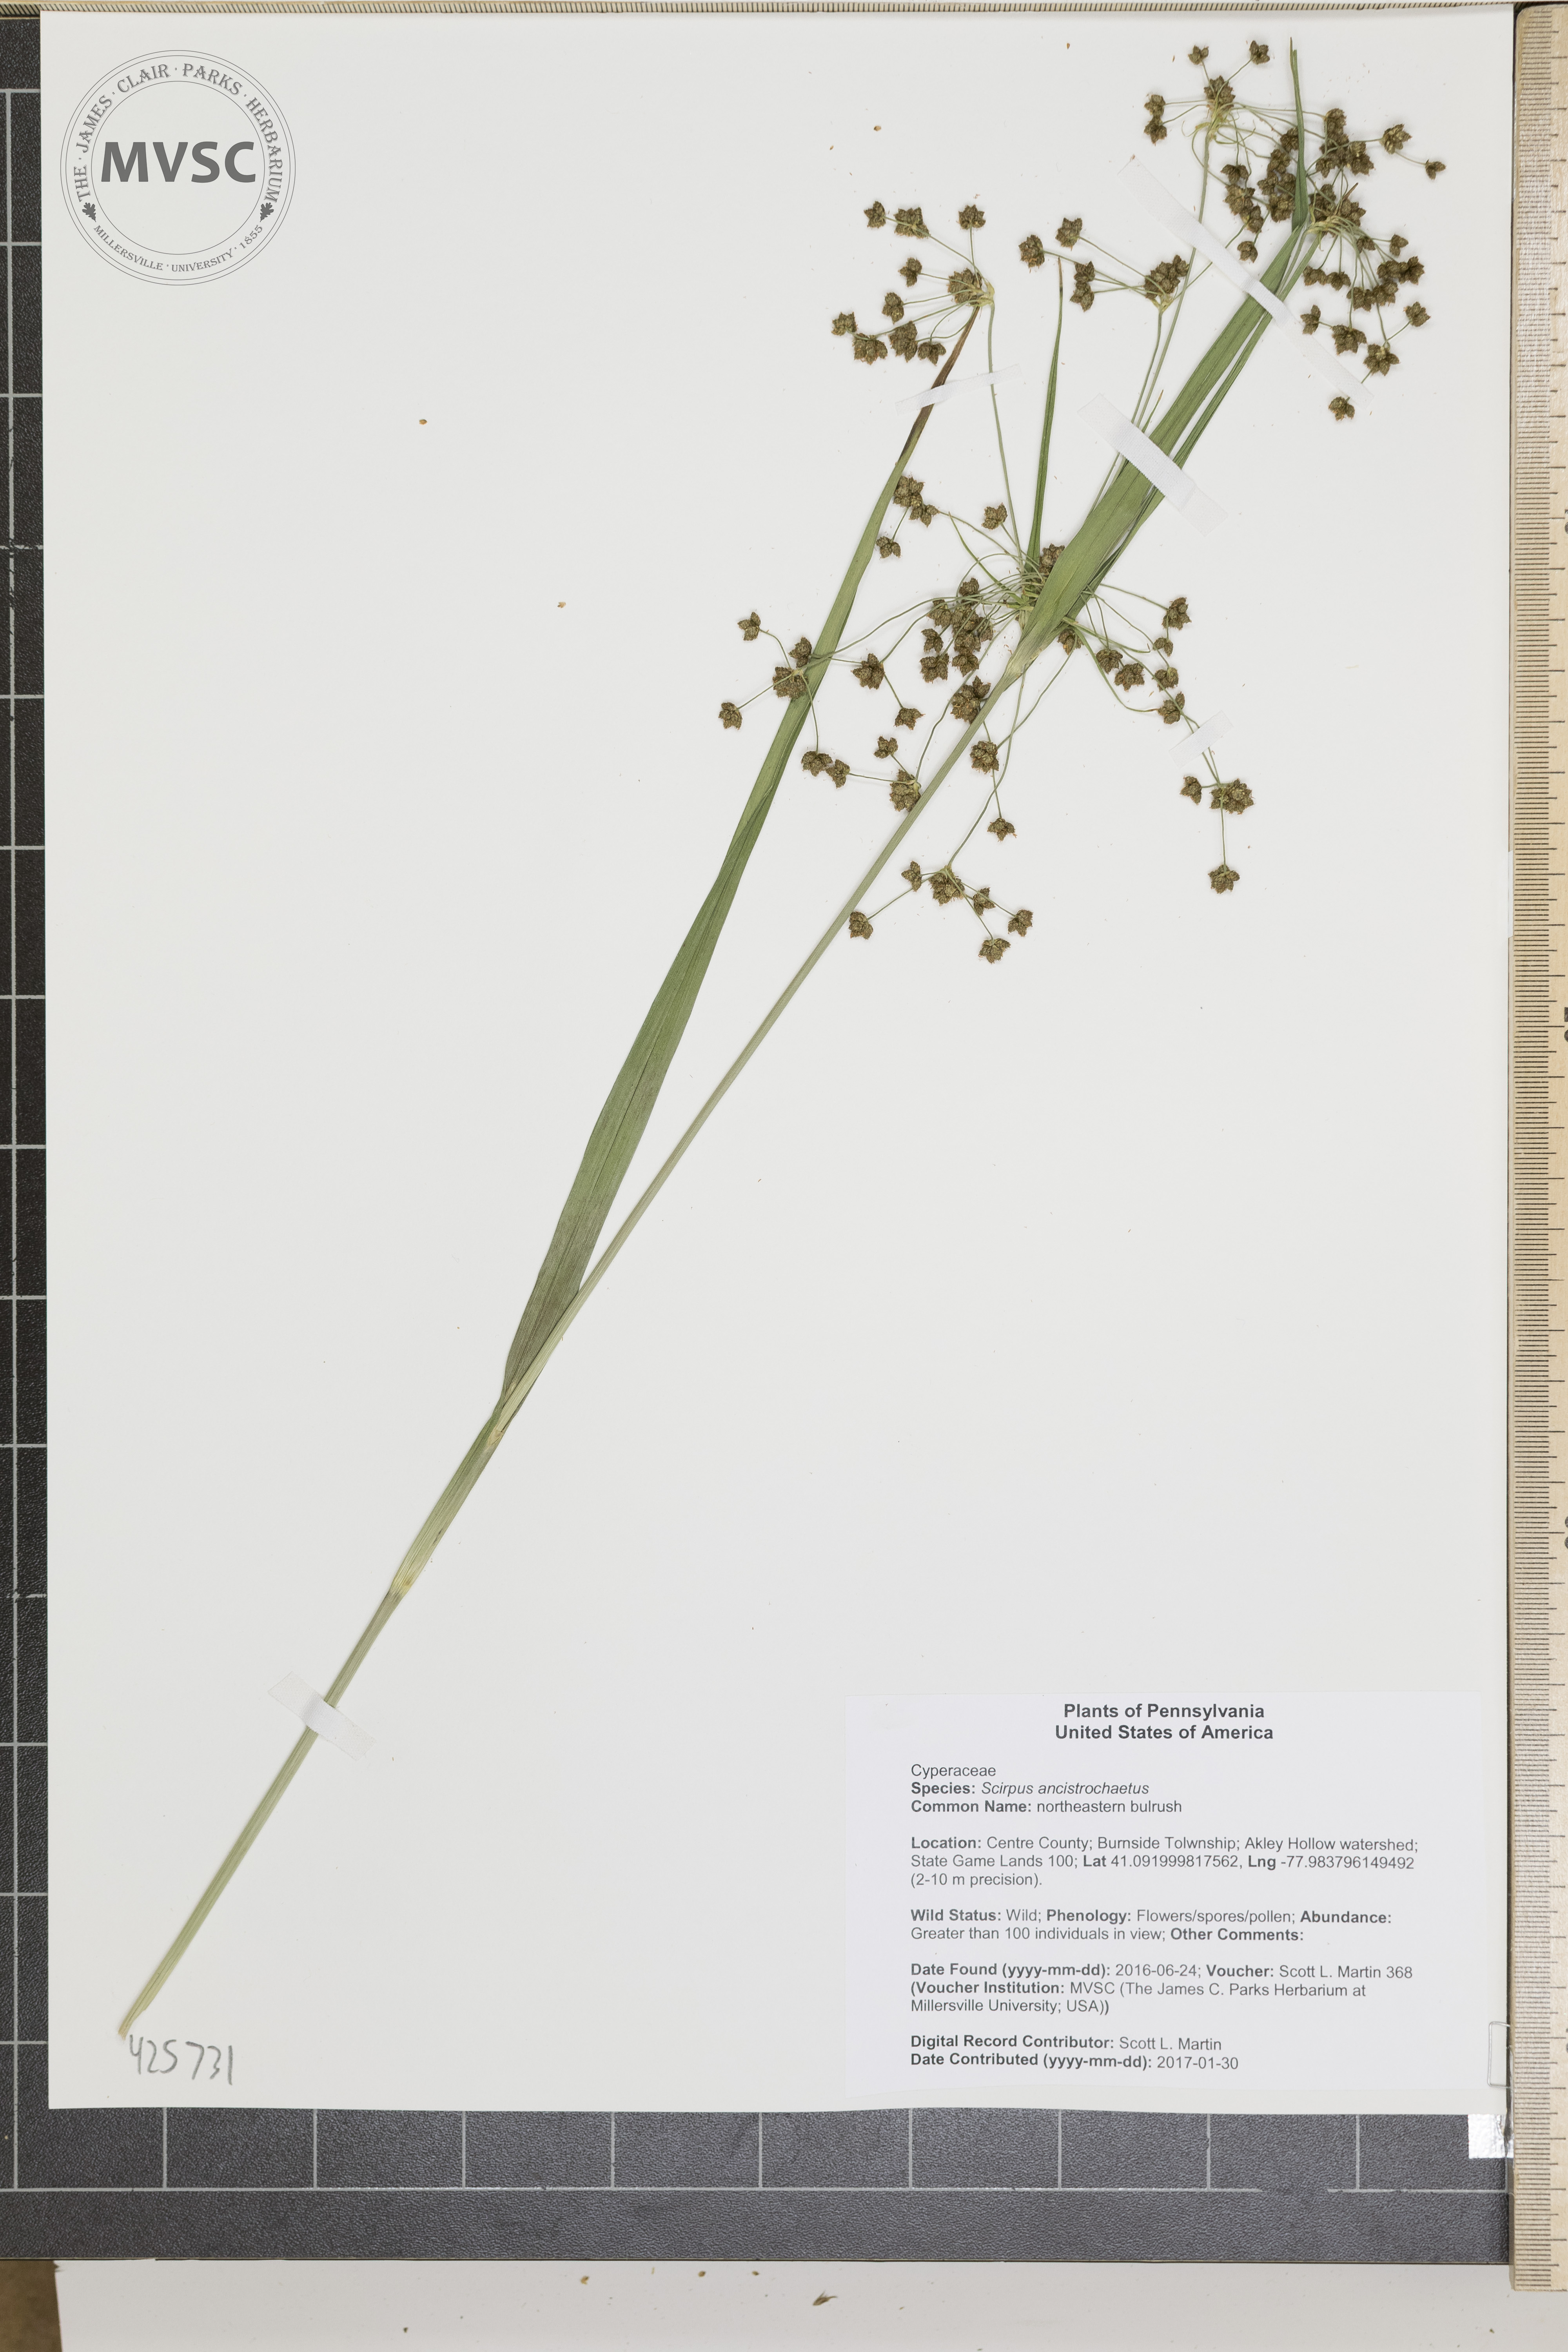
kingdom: Plantae
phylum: Tracheophyta
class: Liliopsida
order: Poales
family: Cyperaceae
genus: Scirpus
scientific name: Scirpus ancistrochaetus
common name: northeastern bulrush
